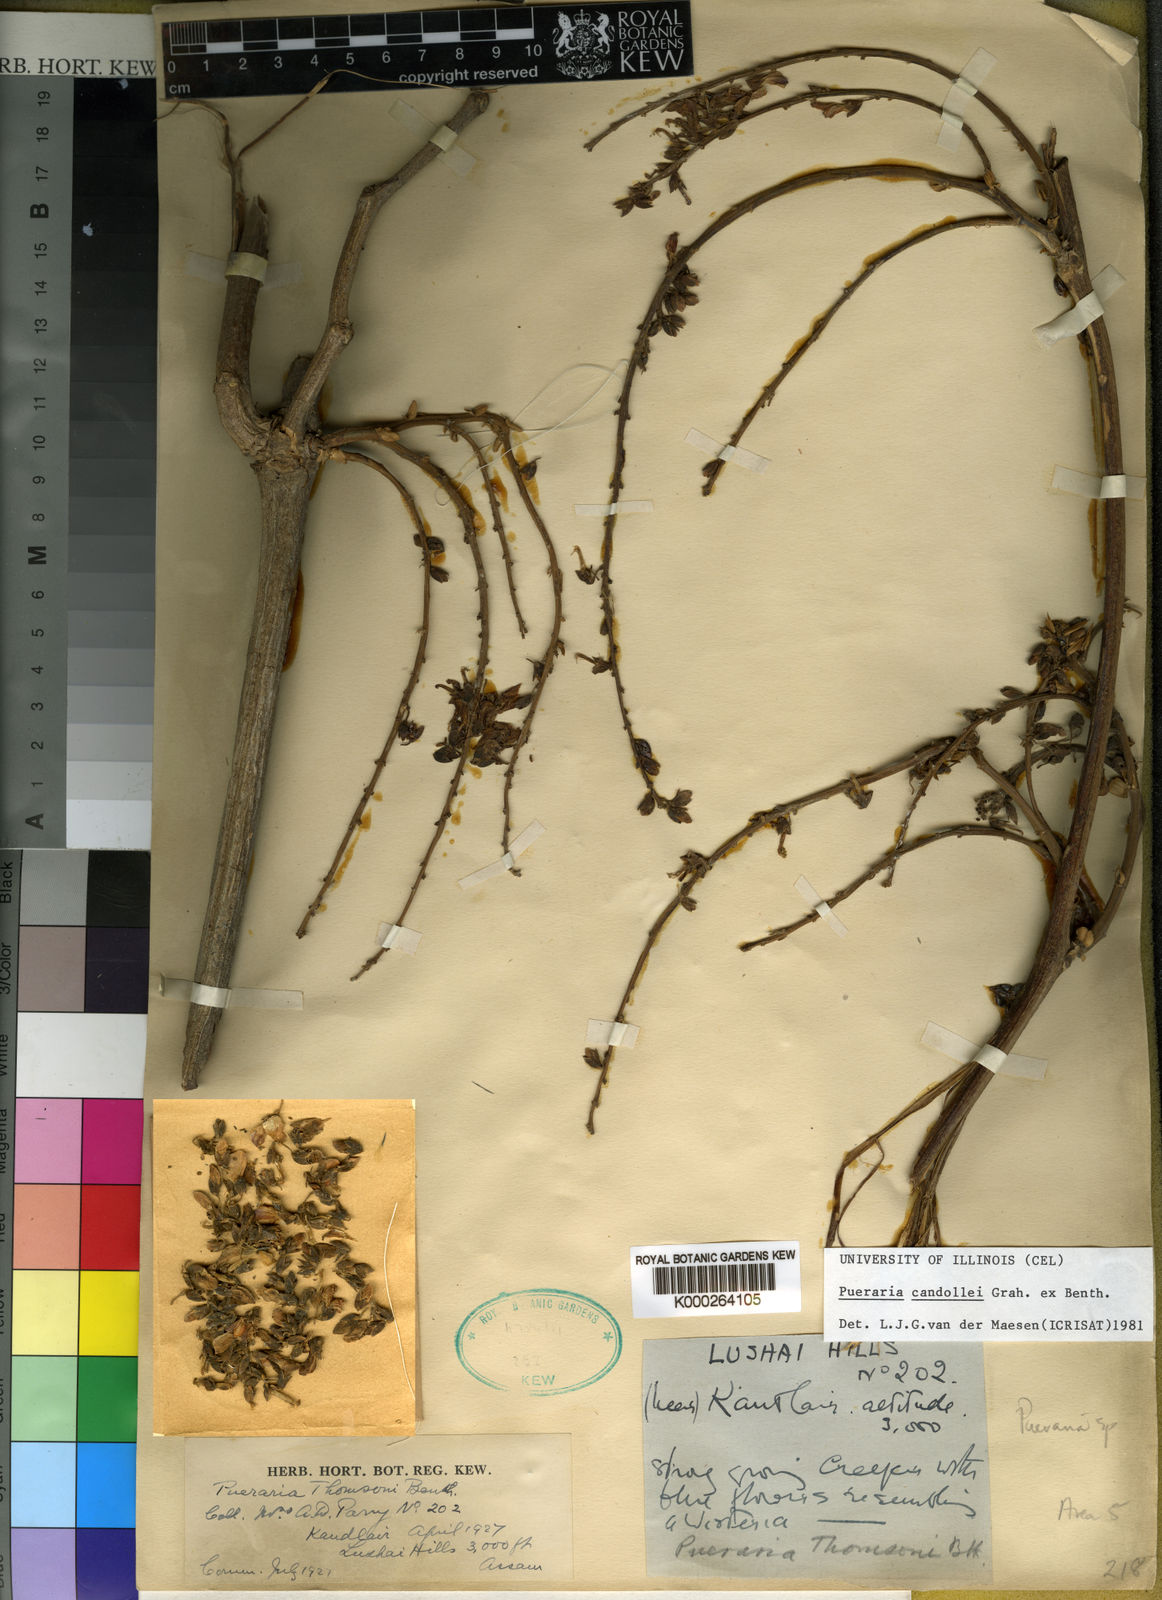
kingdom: Plantae
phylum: Tracheophyta
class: Magnoliopsida
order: Fabales
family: Fabaceae
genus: Pueraria
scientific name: Pueraria montana
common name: Kudzu
